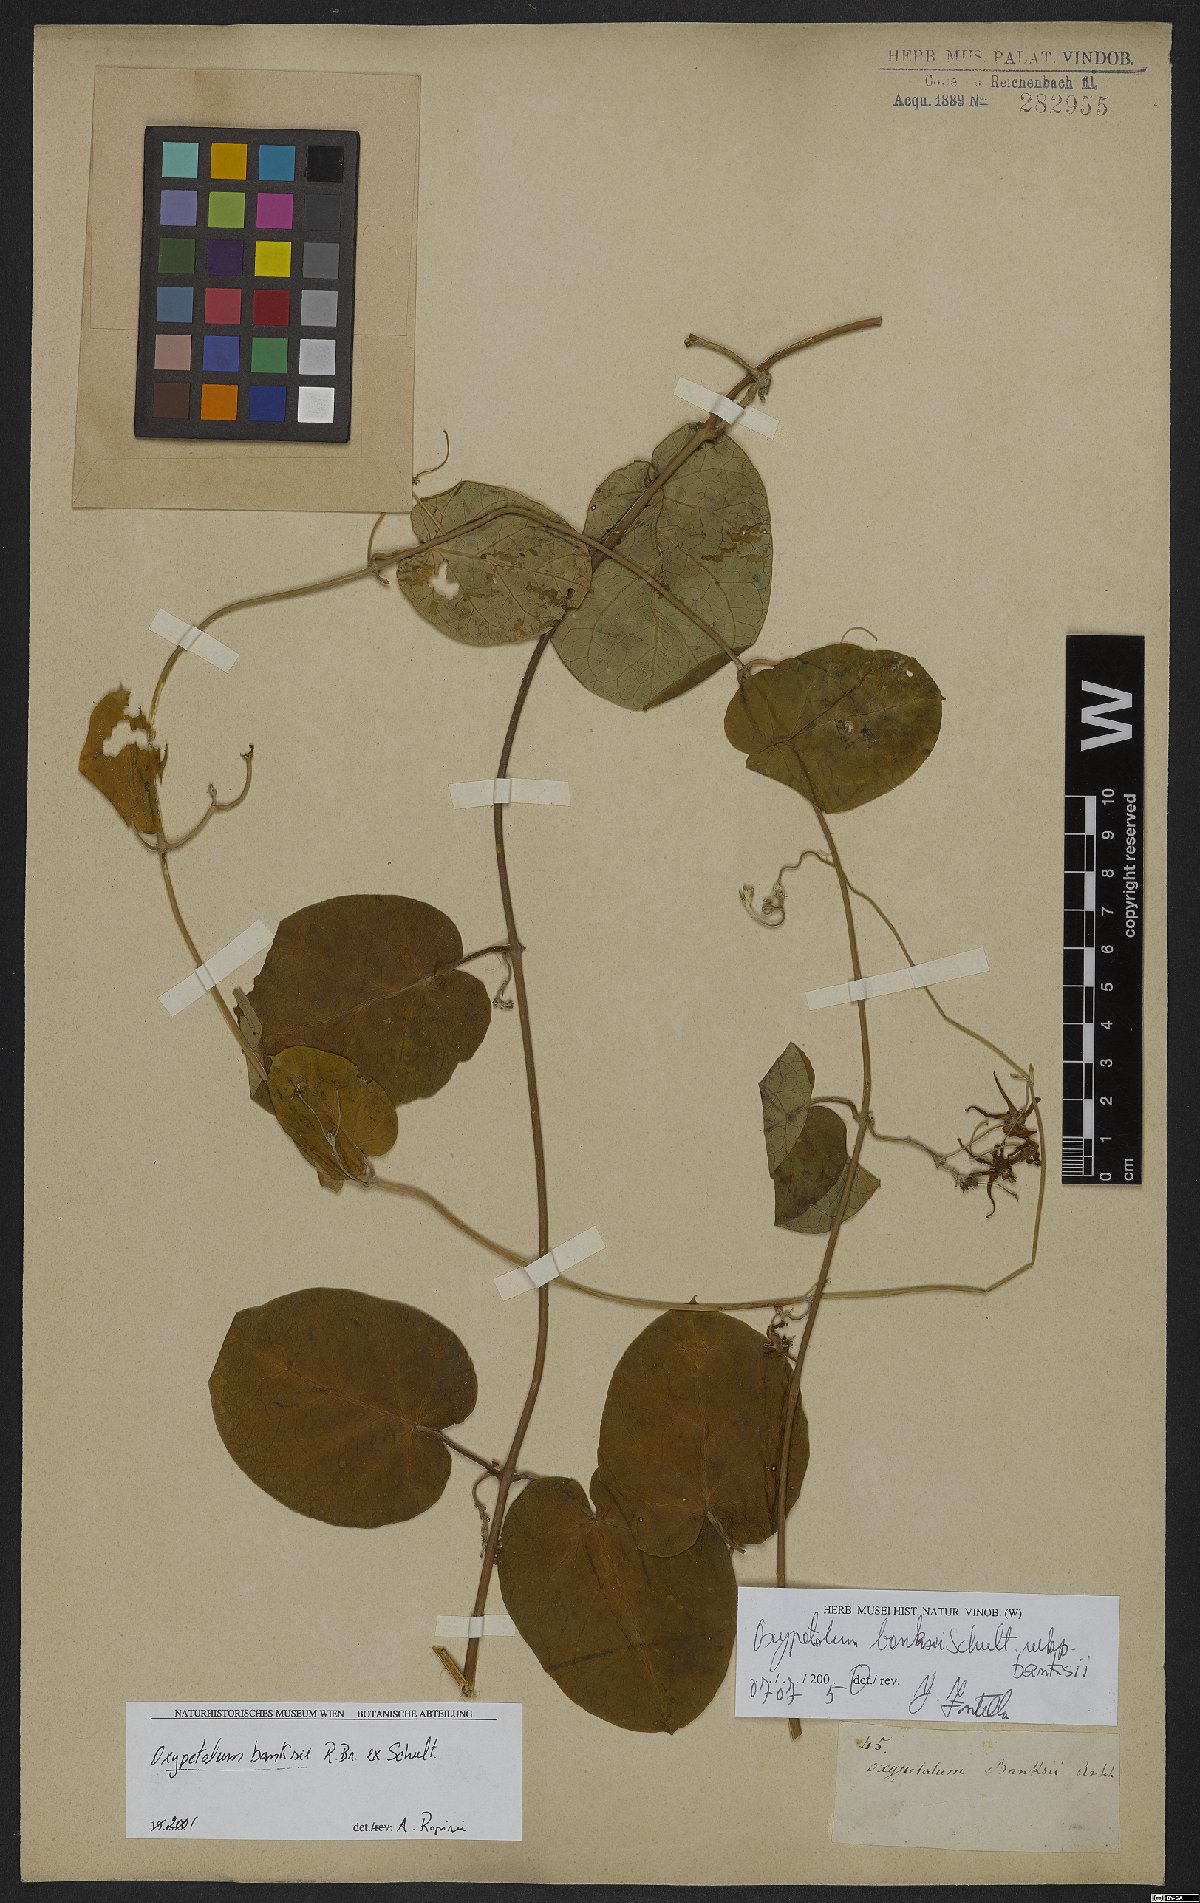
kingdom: Plantae
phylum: Tracheophyta
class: Magnoliopsida
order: Gentianales
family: Apocynaceae
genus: Oxypetalum
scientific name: Oxypetalum banksii
